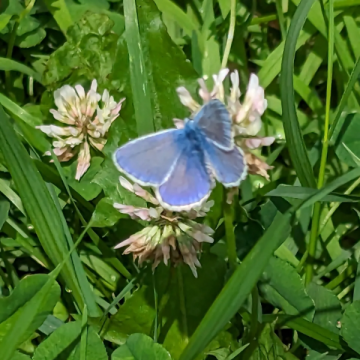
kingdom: Animalia
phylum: Arthropoda
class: Insecta
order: Lepidoptera
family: Lycaenidae
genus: Polyommatus
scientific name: Polyommatus icarus
